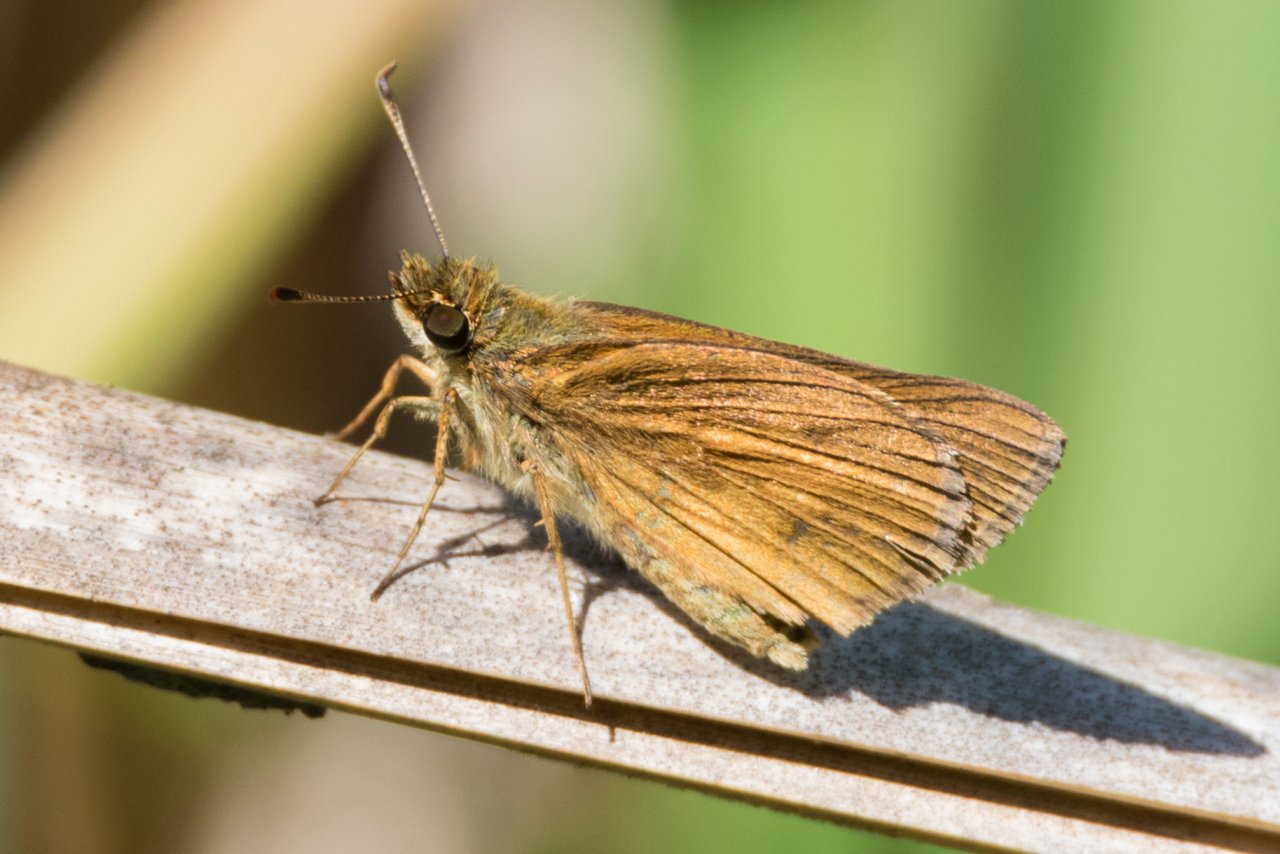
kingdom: Animalia
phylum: Arthropoda
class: Insecta
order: Lepidoptera
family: Hesperiidae
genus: Poanes
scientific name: Poanes viator
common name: Broad-winged Skipper
